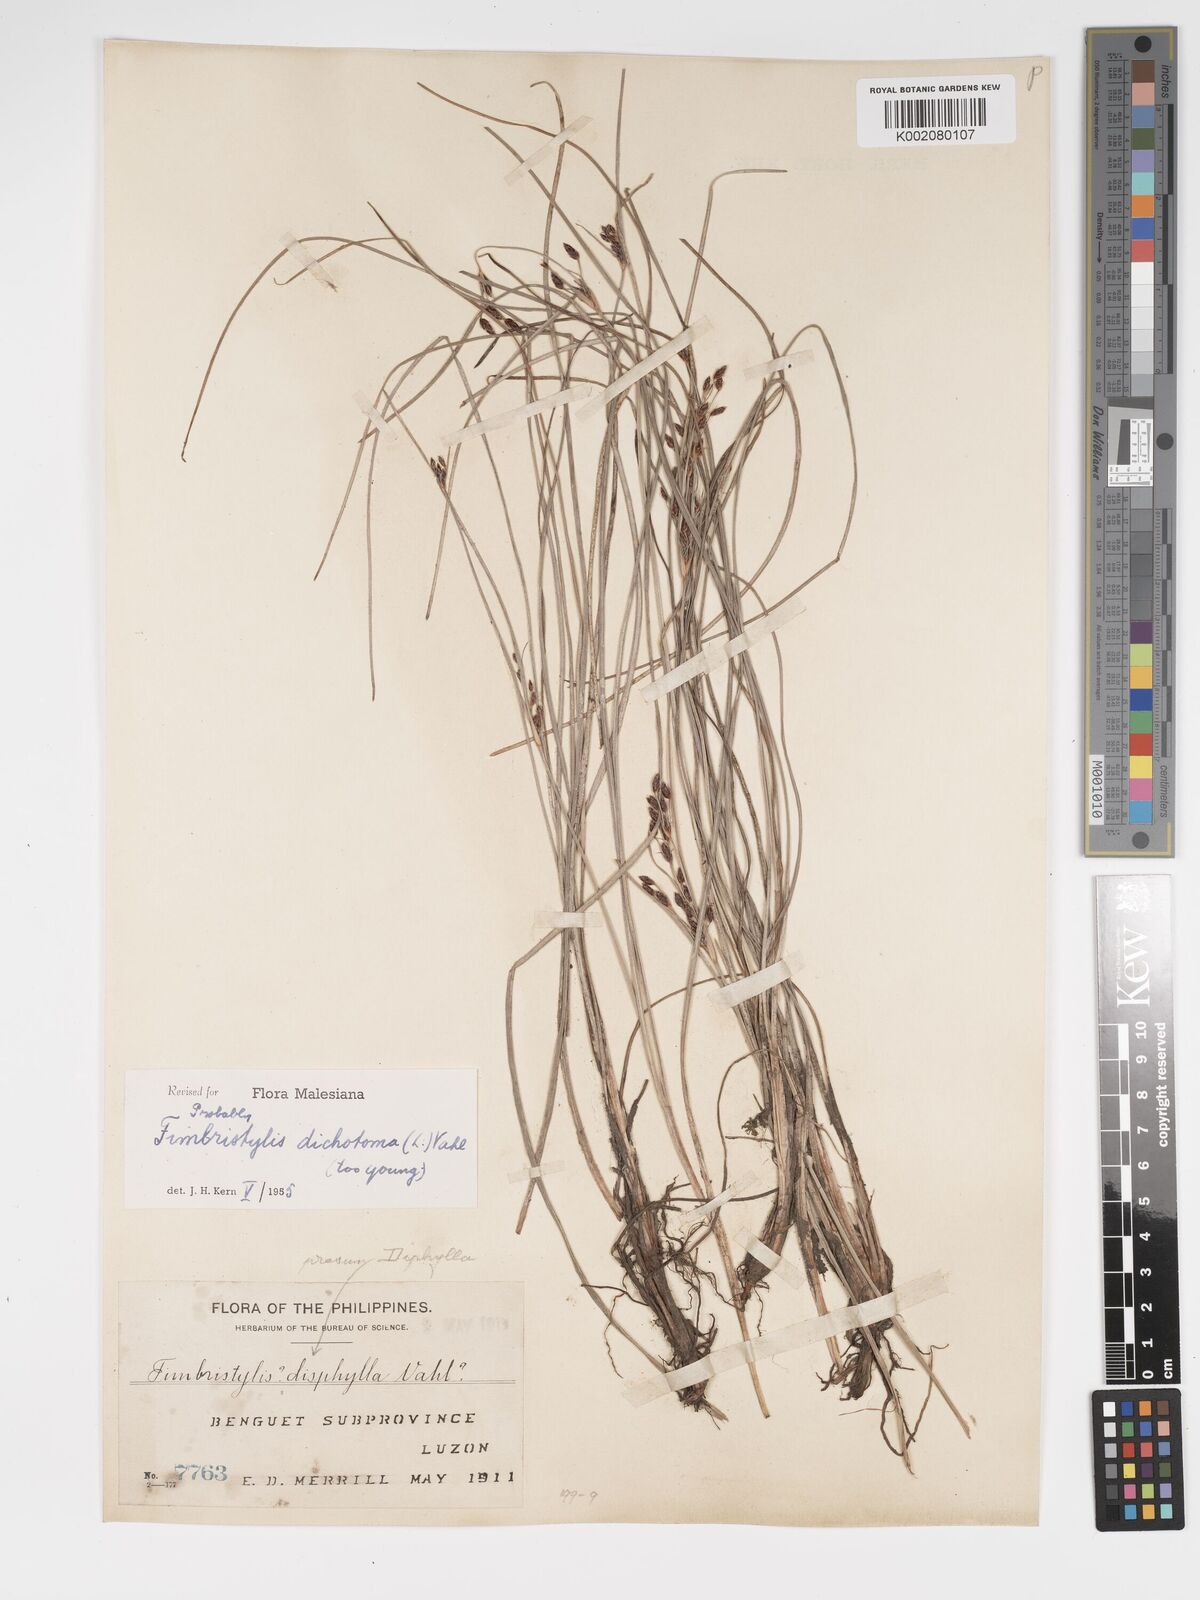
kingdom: Plantae
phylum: Tracheophyta
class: Liliopsida
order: Poales
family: Cyperaceae
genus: Fimbristylis
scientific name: Fimbristylis dichotoma
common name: Forked fimbry
